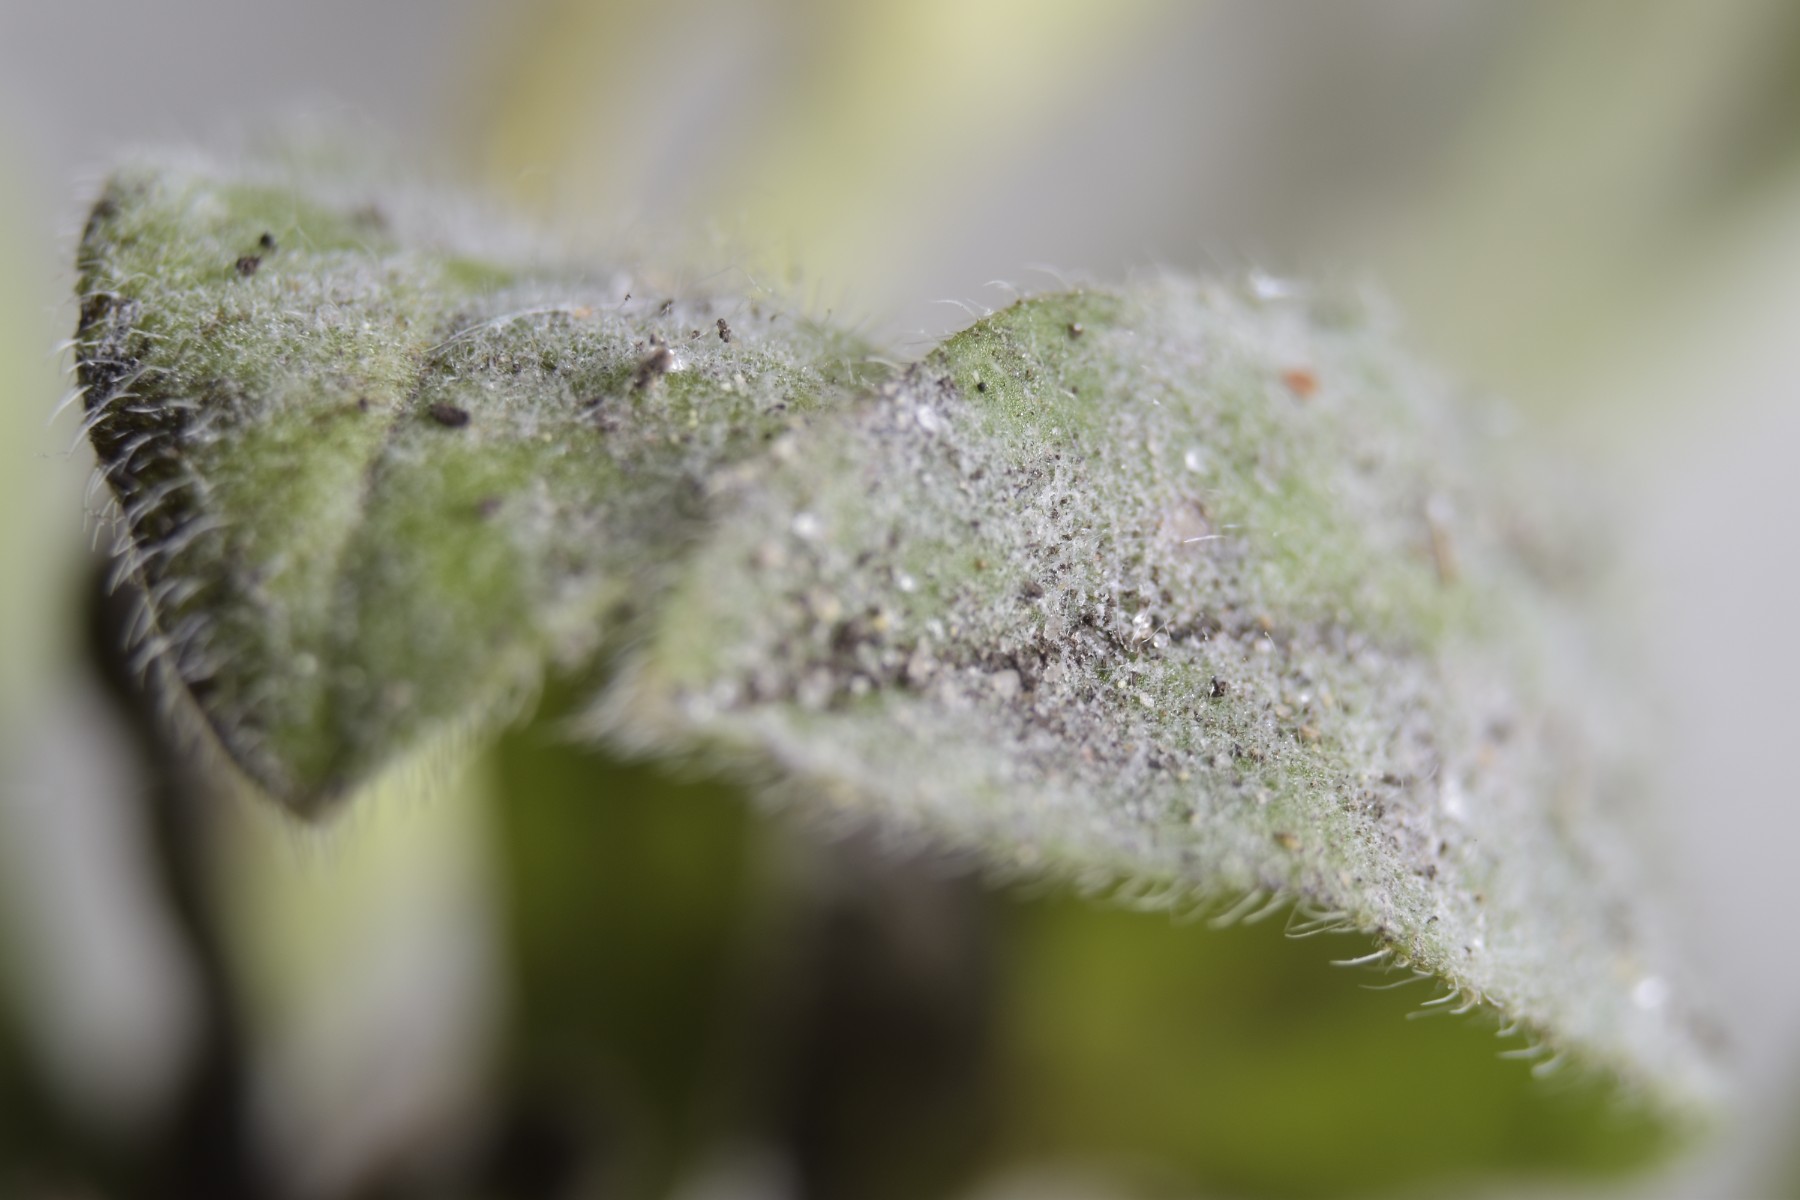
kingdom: Fungi
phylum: Ascomycota
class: Leotiomycetes
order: Helotiales
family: Erysiphaceae
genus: Golovinomyces
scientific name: Golovinomyces asperifolii
